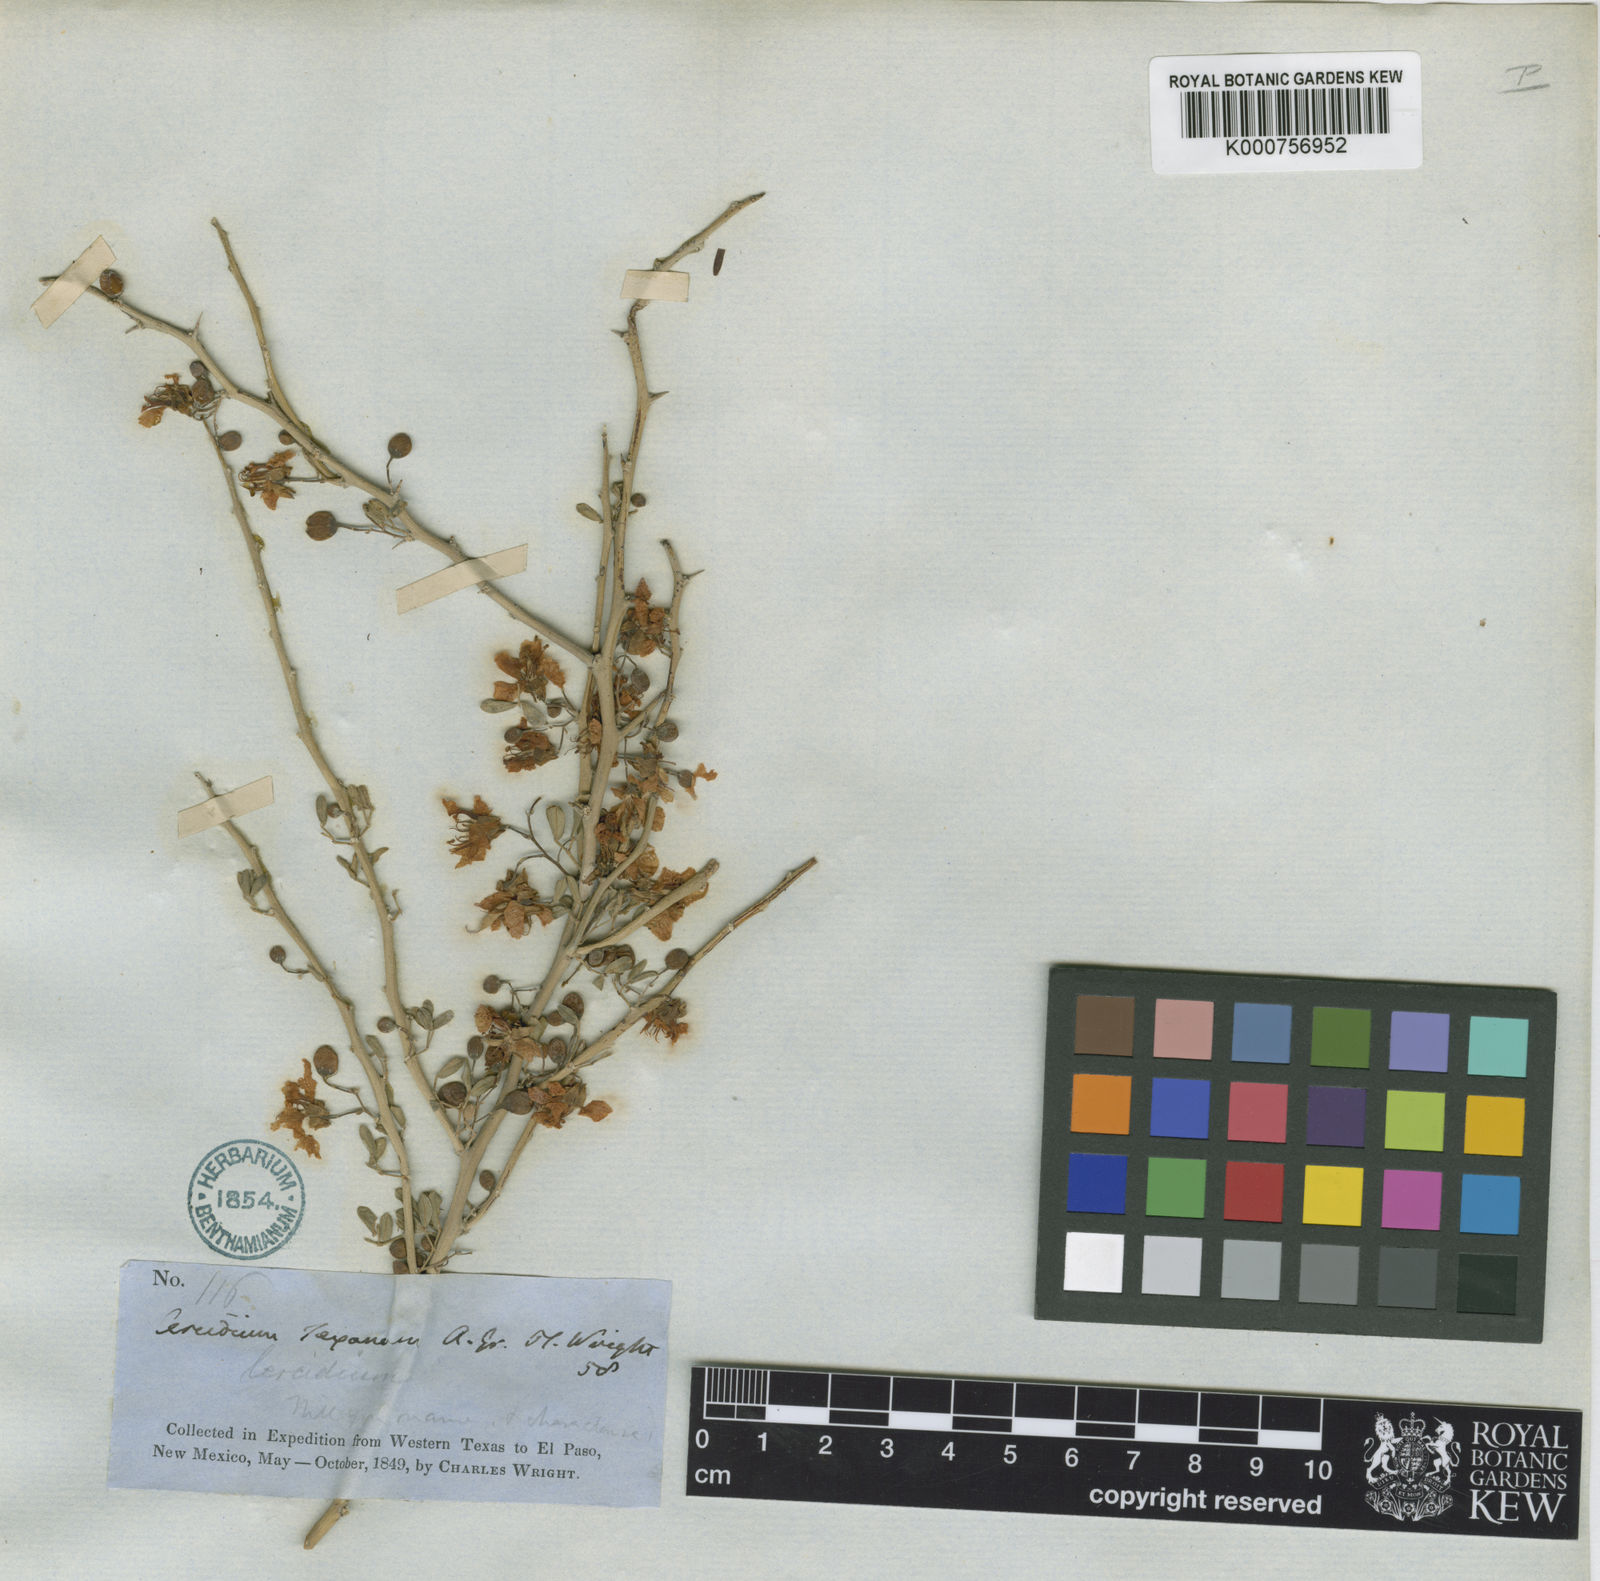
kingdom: Plantae
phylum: Tracheophyta
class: Magnoliopsida
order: Fabales
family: Fabaceae
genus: Parkinsonia
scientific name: Parkinsonia texana
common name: Texas paloverde
